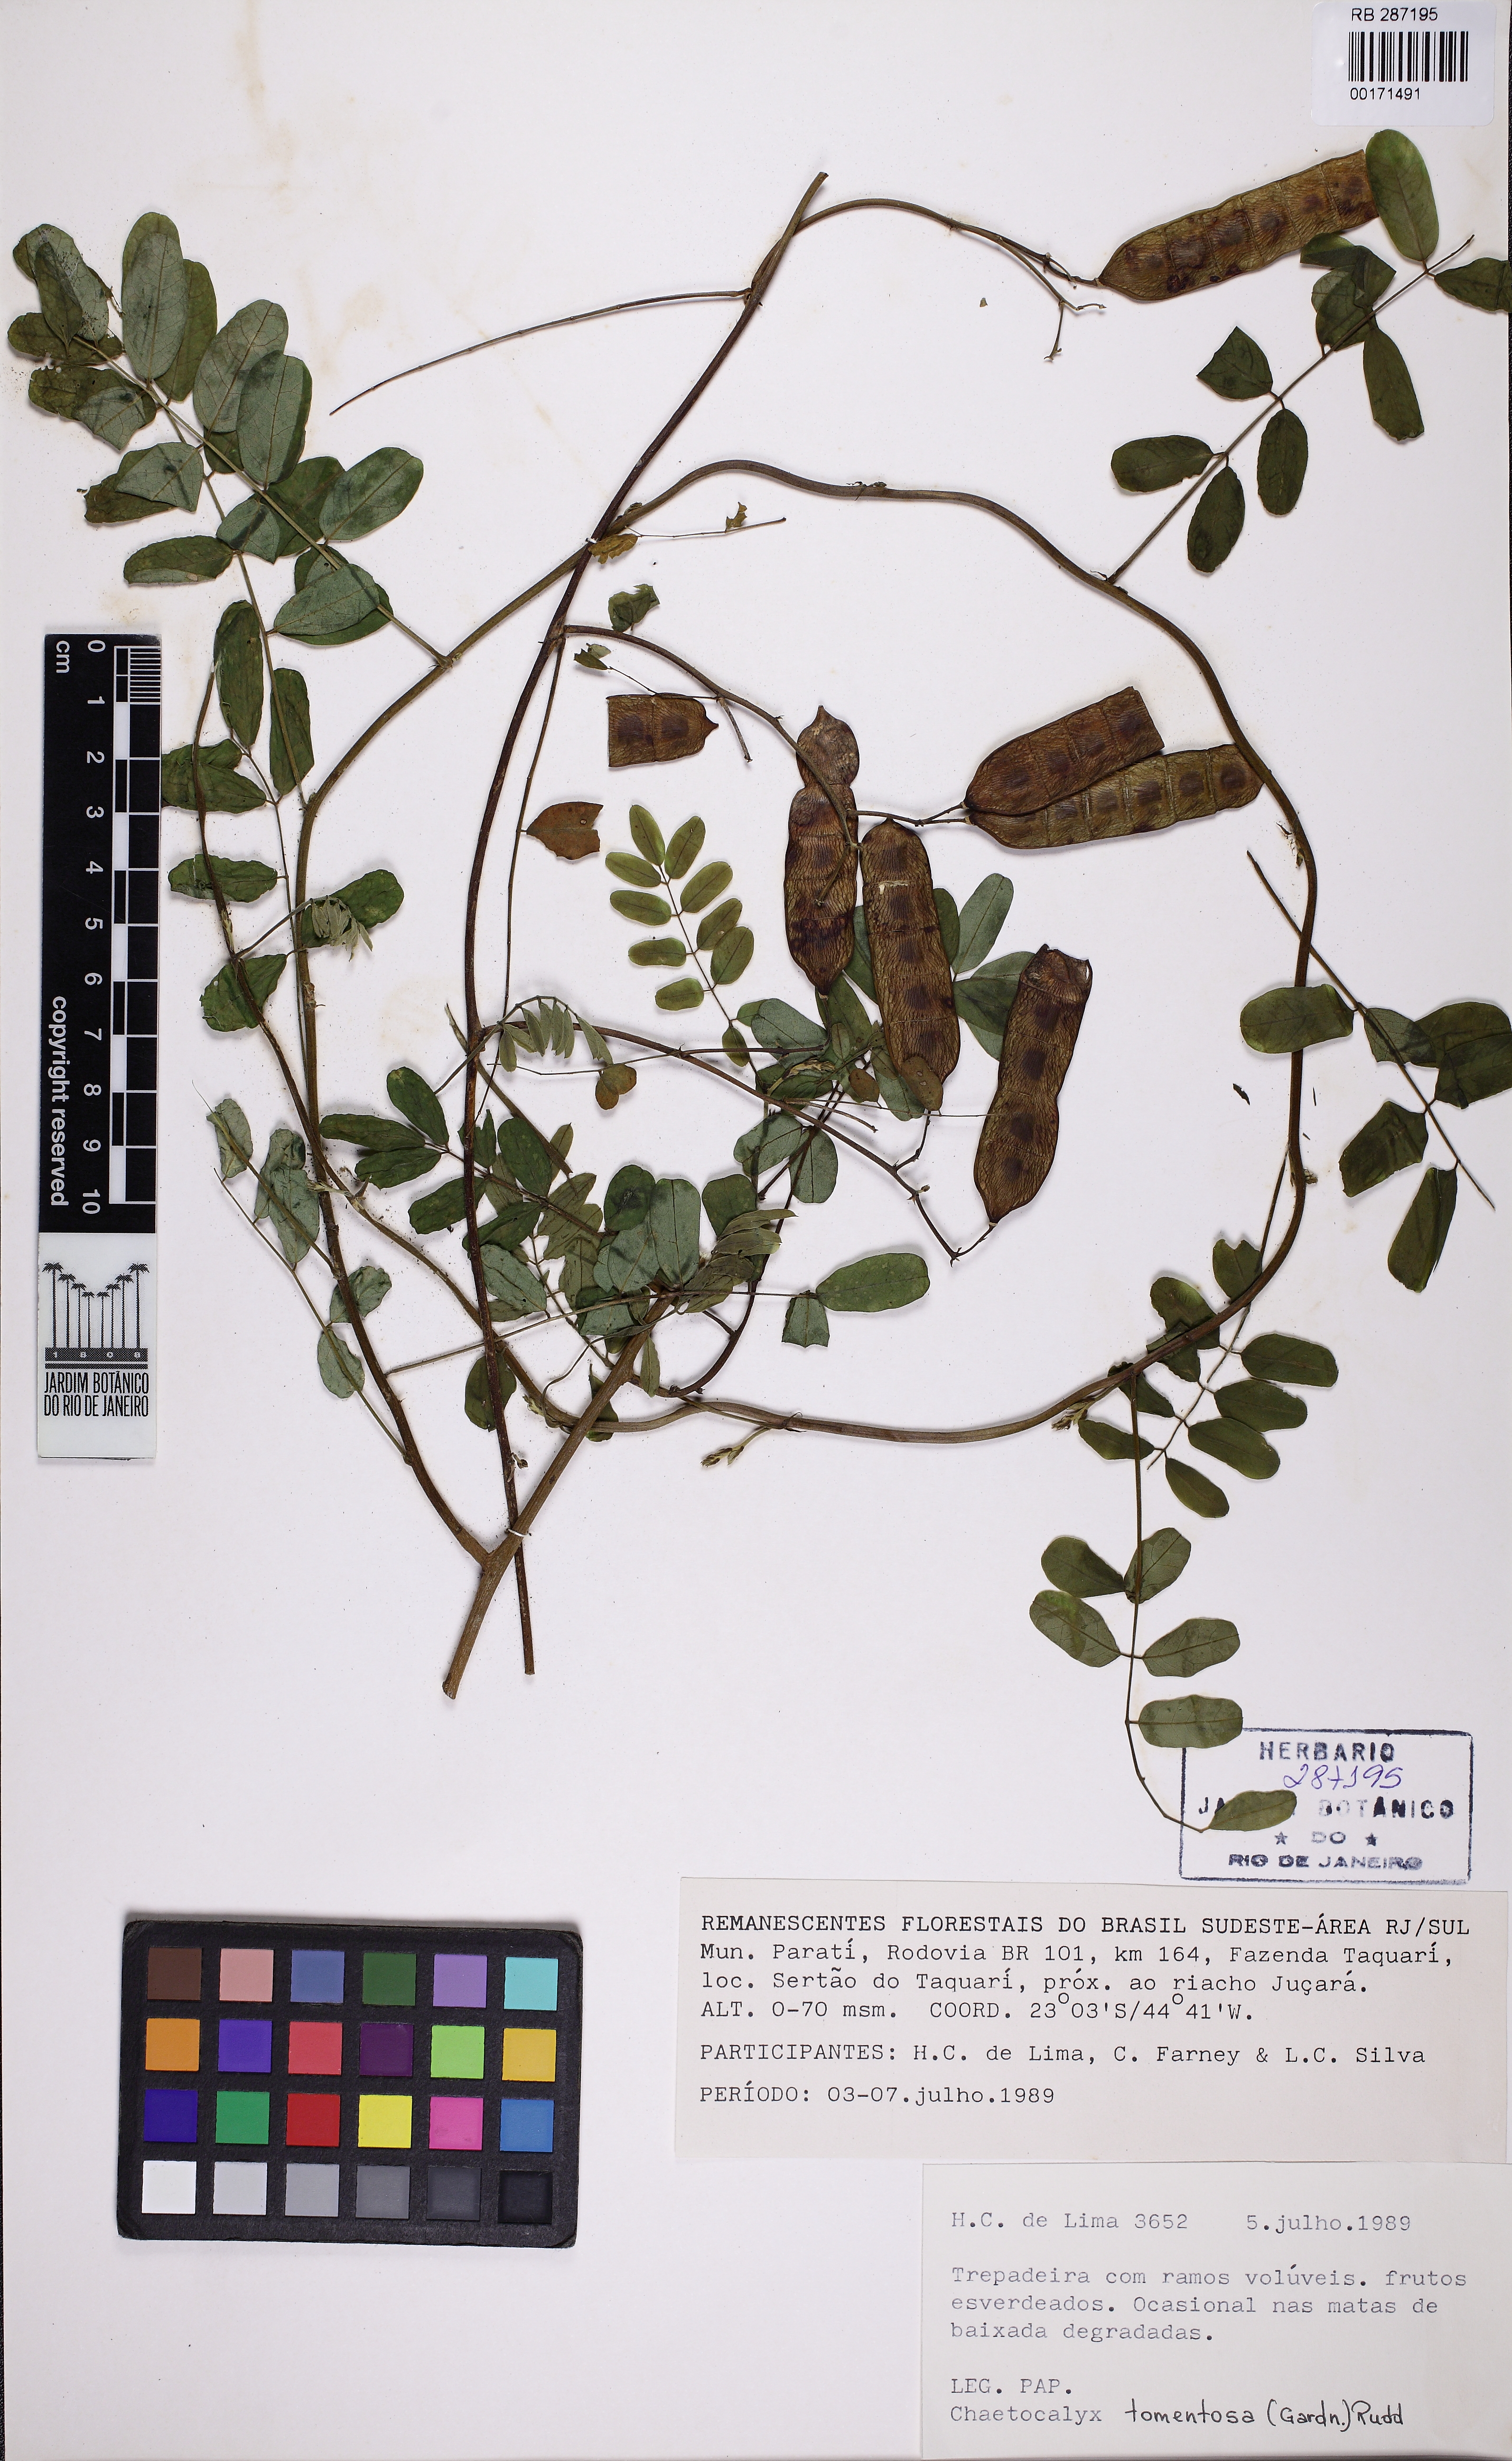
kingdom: Plantae
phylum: Tracheophyta
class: Magnoliopsida
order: Fabales
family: Fabaceae
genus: Nissolia
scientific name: Nissolia tomentosa
